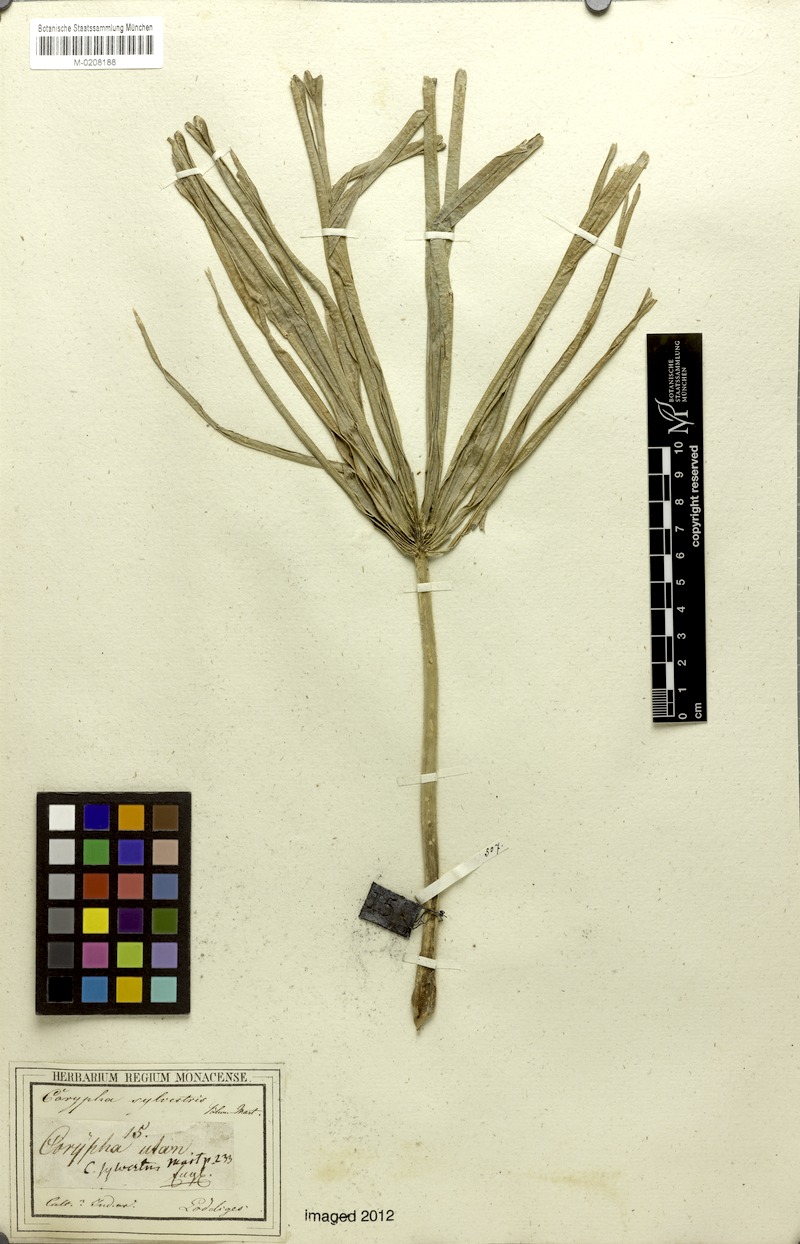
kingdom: Plantae
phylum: Tracheophyta
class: Liliopsida
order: Arecales
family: Arecaceae
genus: Corypha
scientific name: Corypha utan
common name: Buri palm
